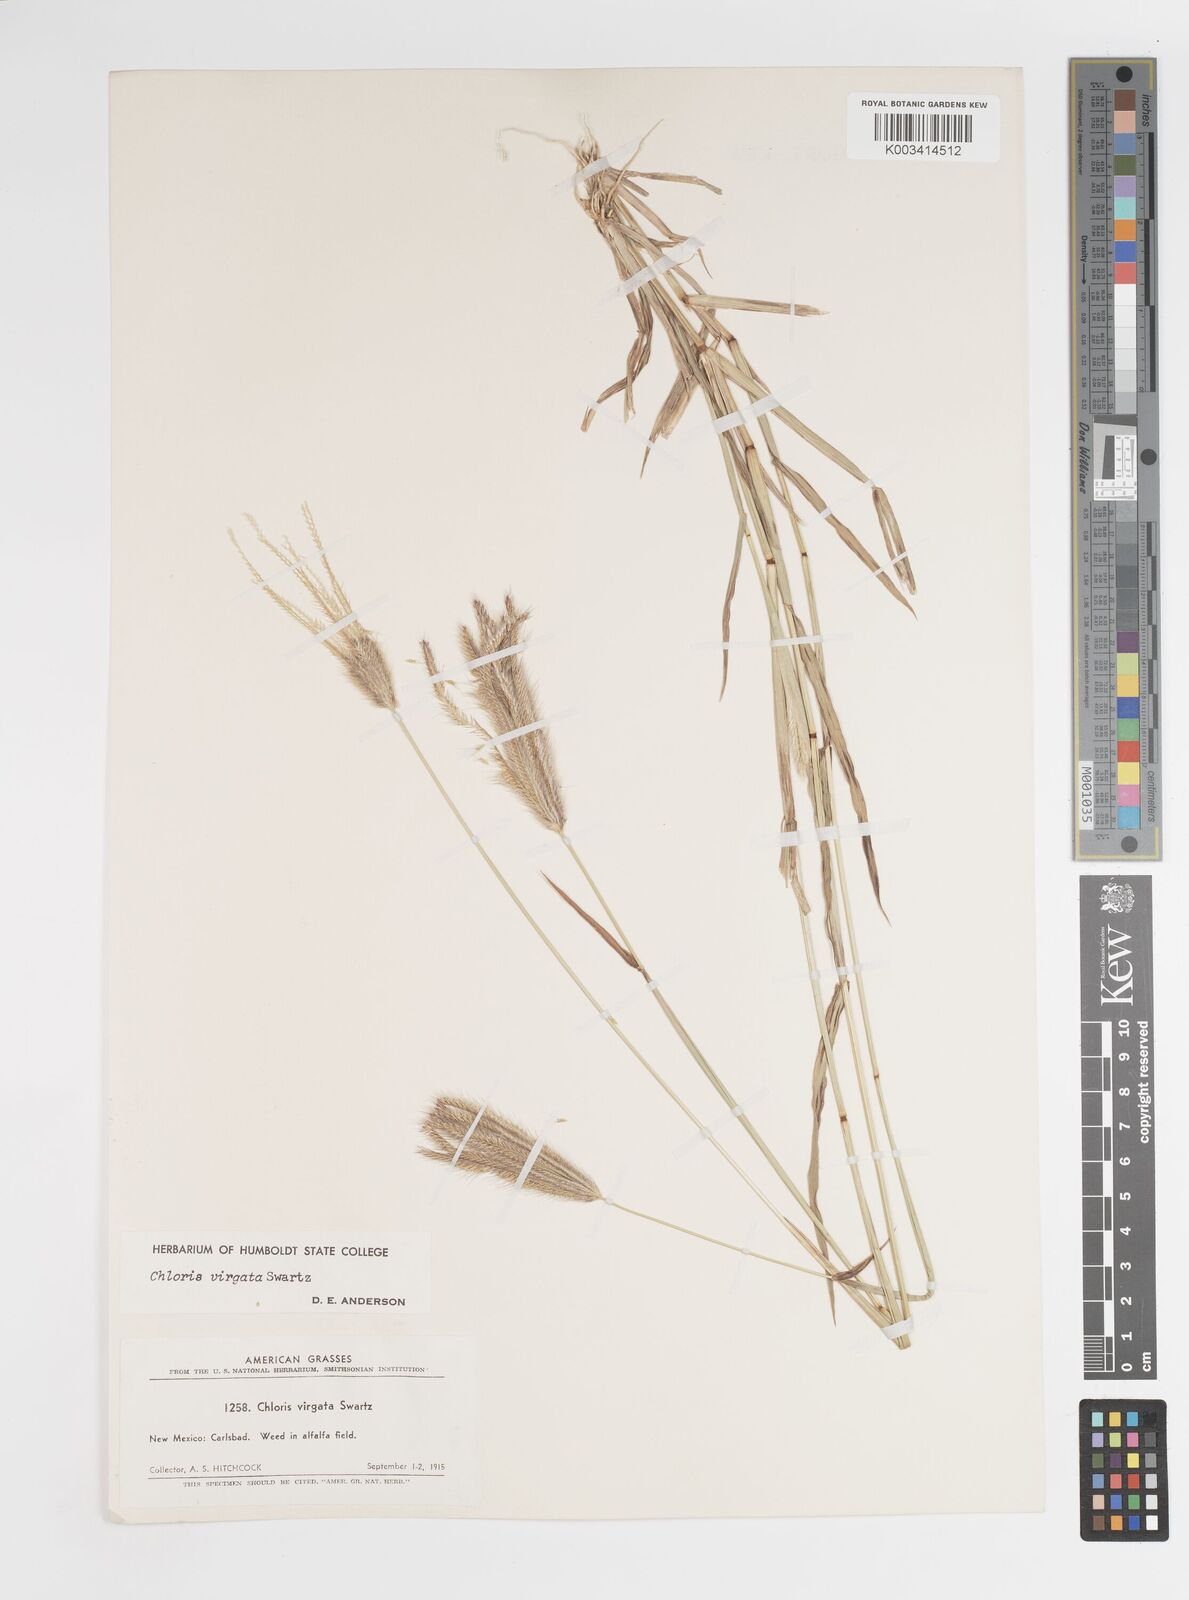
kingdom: Plantae
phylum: Tracheophyta
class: Liliopsida
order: Poales
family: Poaceae
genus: Chloris
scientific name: Chloris virgata
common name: Feathery rhodes-grass
